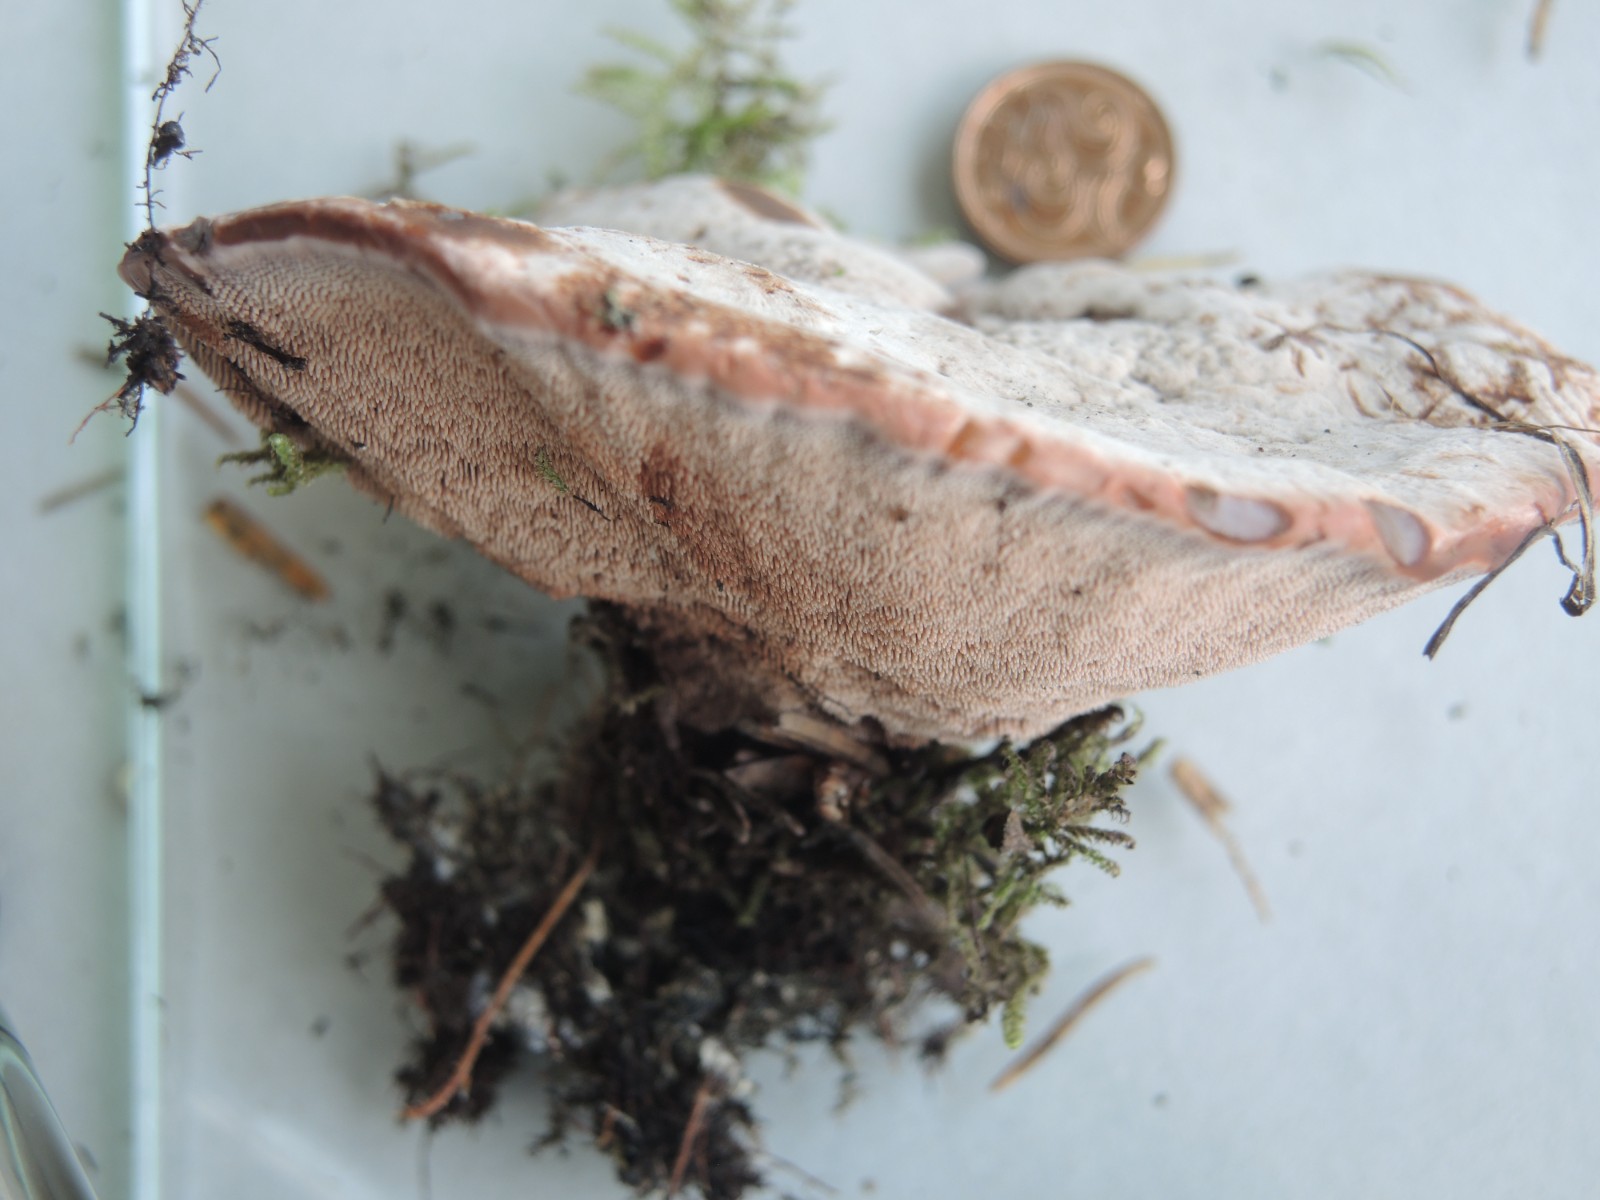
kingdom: Fungi
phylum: Basidiomycota
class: Agaricomycetes
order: Thelephorales
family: Bankeraceae
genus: Hydnellum
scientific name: Hydnellum ferrugineum
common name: rust-korkpigsvamp
